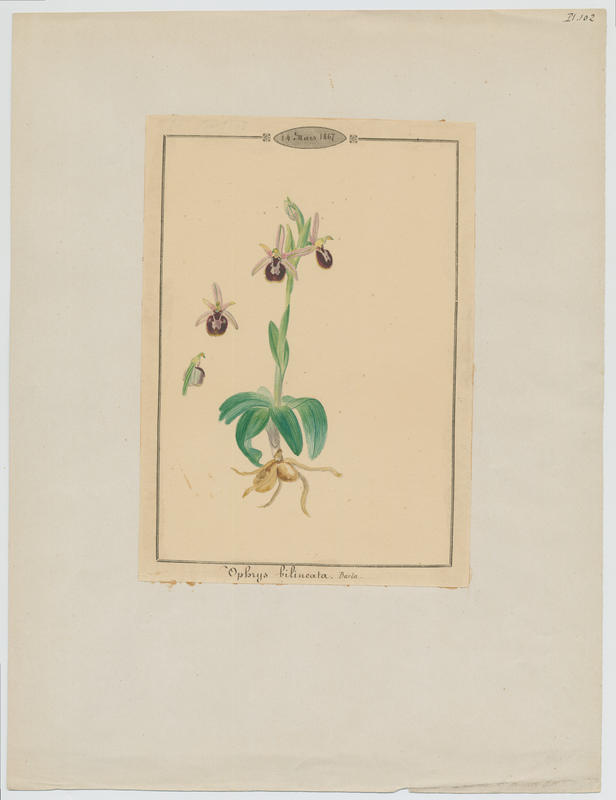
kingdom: Plantae
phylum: Tracheophyta
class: Liliopsida
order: Asparagales
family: Orchidaceae
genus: Ophrys
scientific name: Ophrys flavicans
